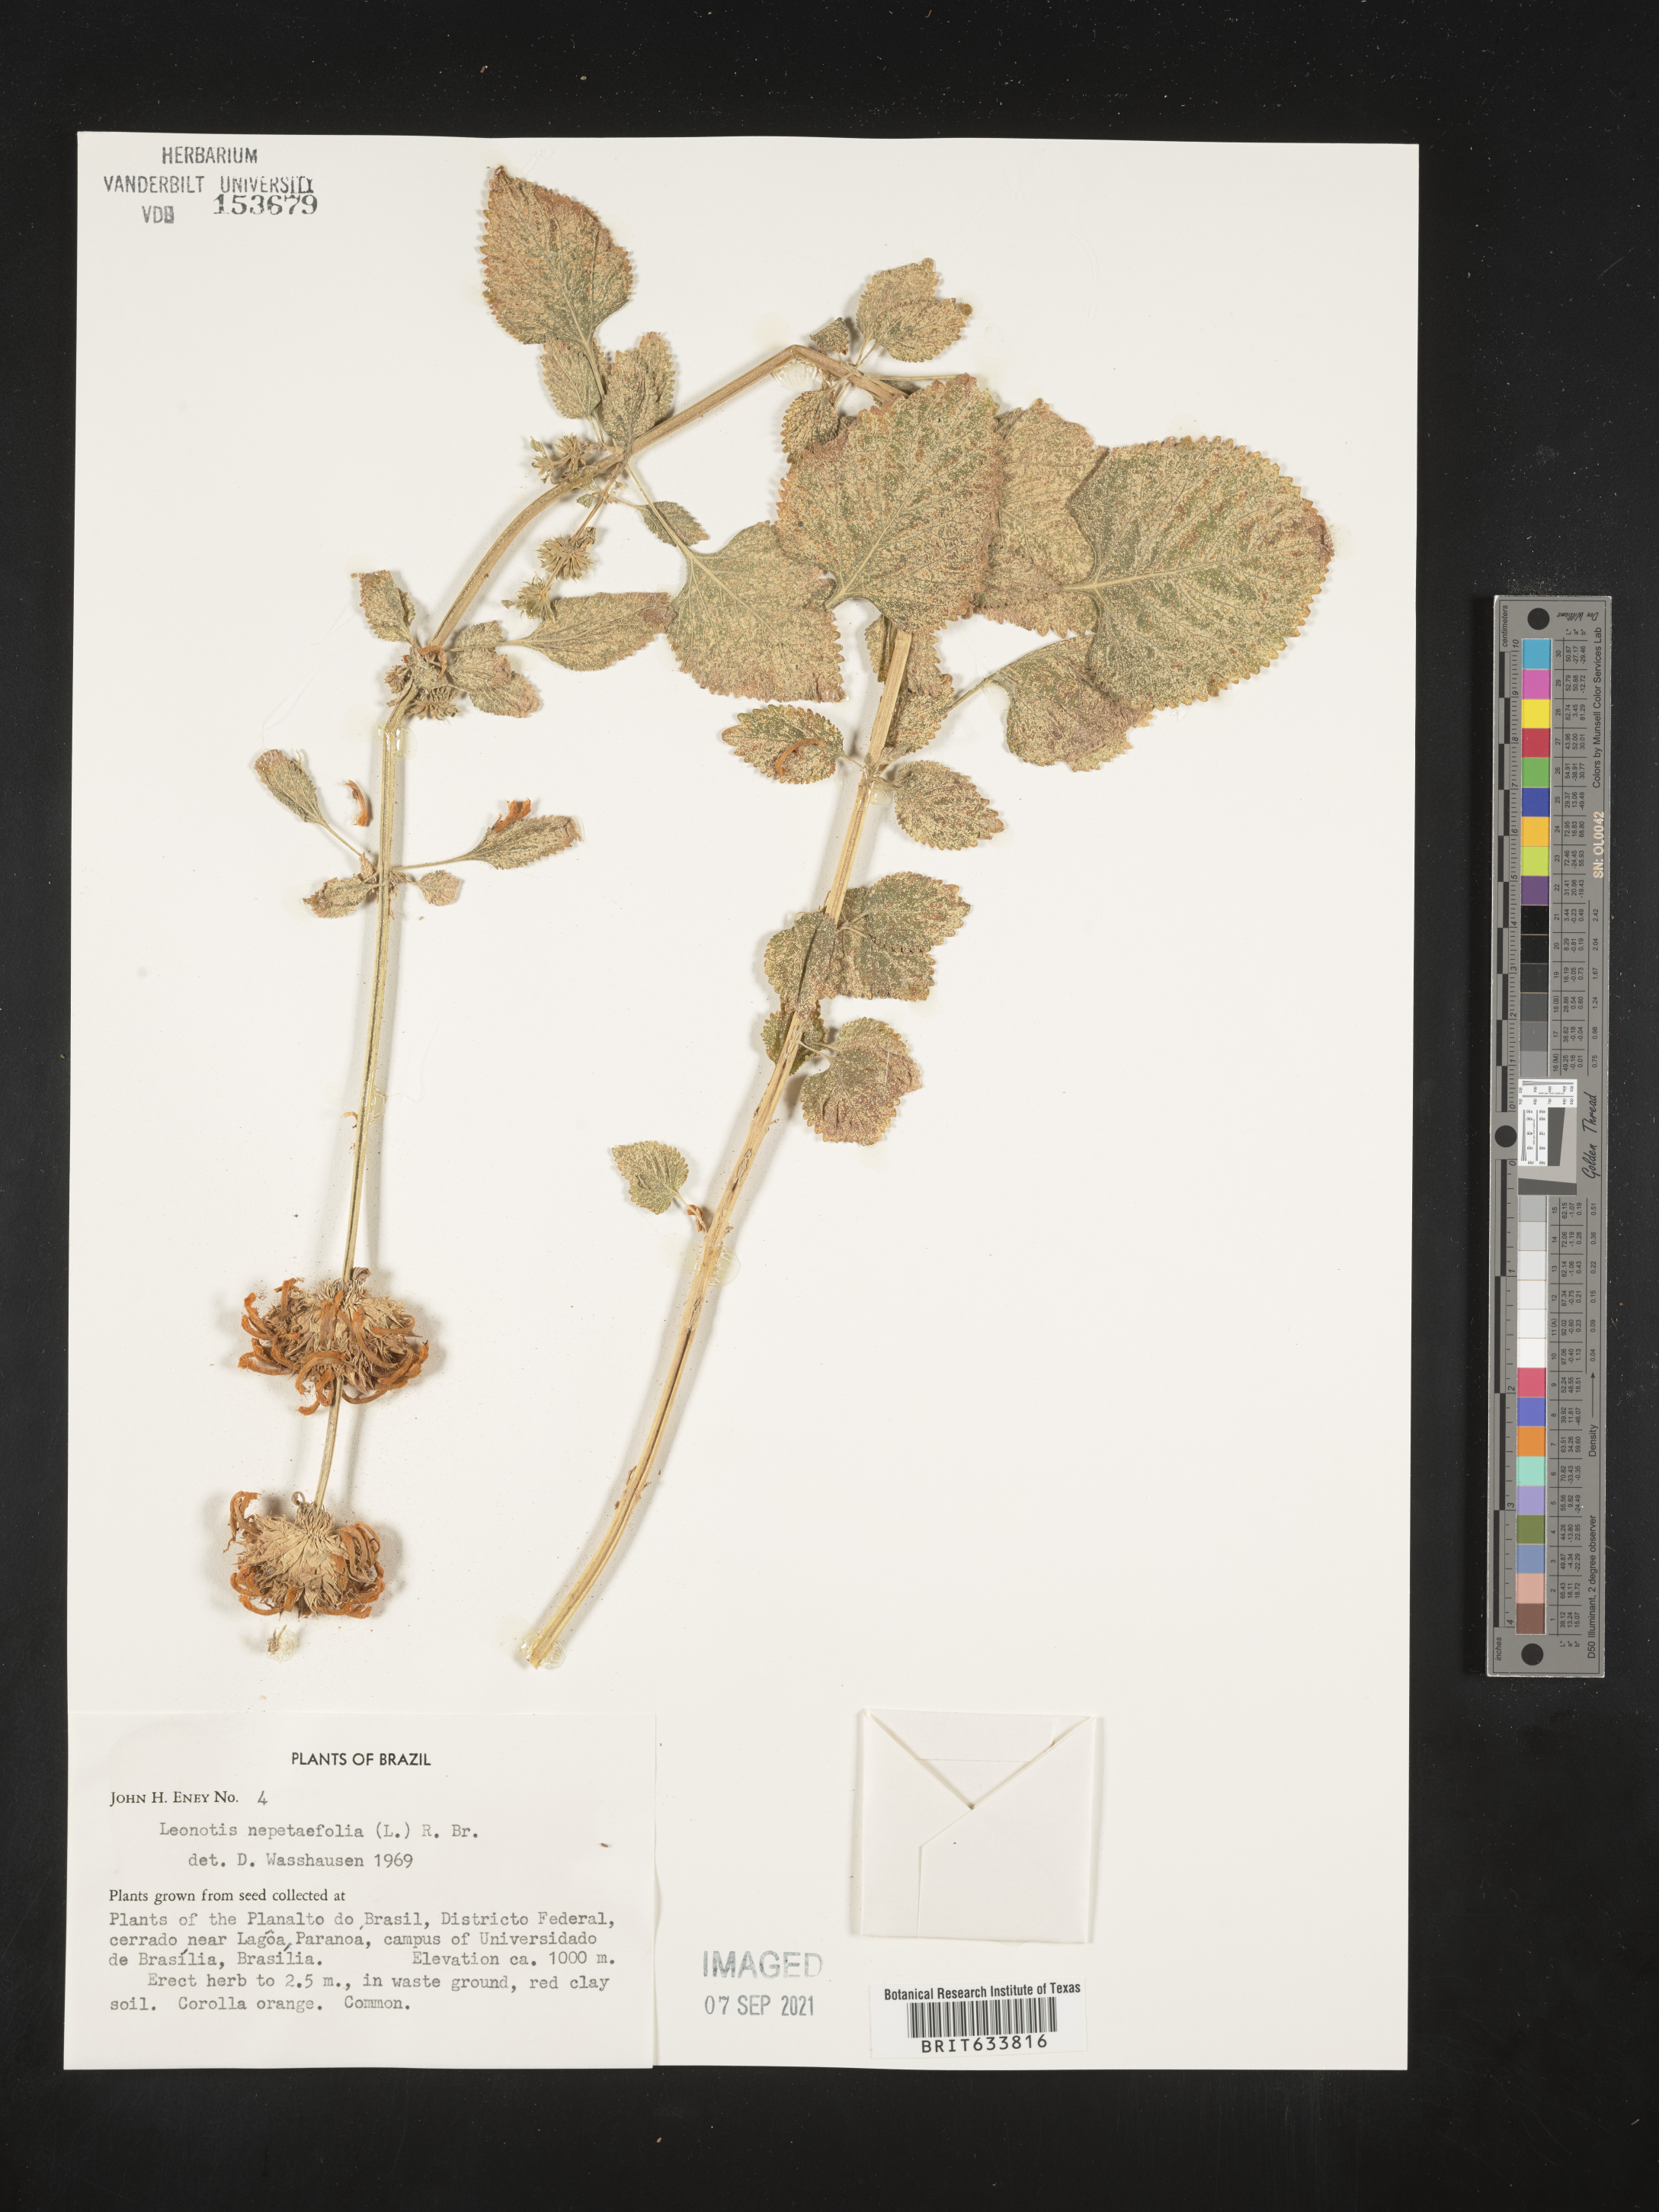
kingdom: Plantae
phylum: Tracheophyta
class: Magnoliopsida
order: Lamiales
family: Lamiaceae
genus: Leonotis
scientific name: Leonotis
